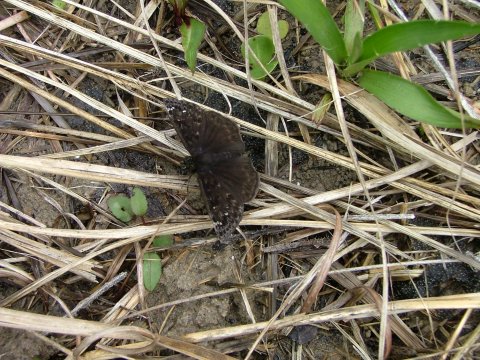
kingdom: Animalia
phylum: Arthropoda
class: Insecta
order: Lepidoptera
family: Hesperiidae
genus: Gesta
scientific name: Gesta
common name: Juvenal's Duskywing
